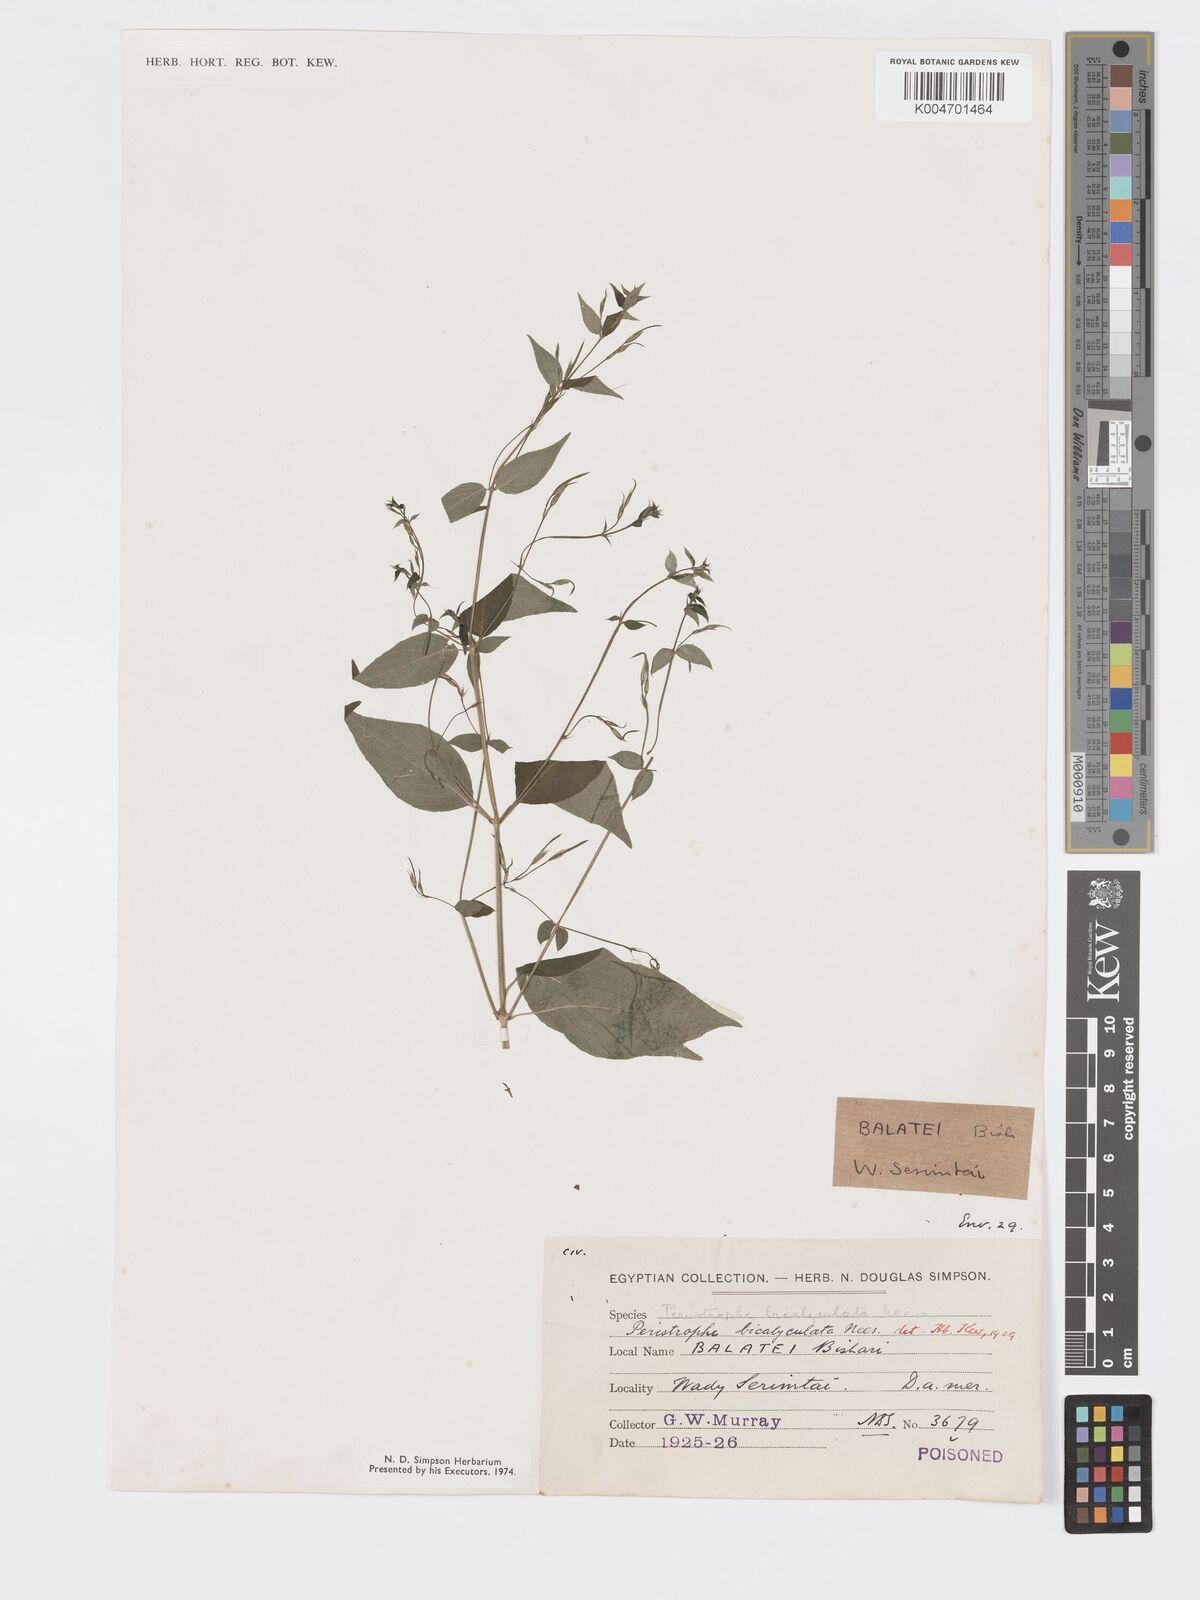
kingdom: Plantae
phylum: Tracheophyta
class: Magnoliopsida
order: Lamiales
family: Acanthaceae
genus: Dicliptera
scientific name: Dicliptera paniculata
